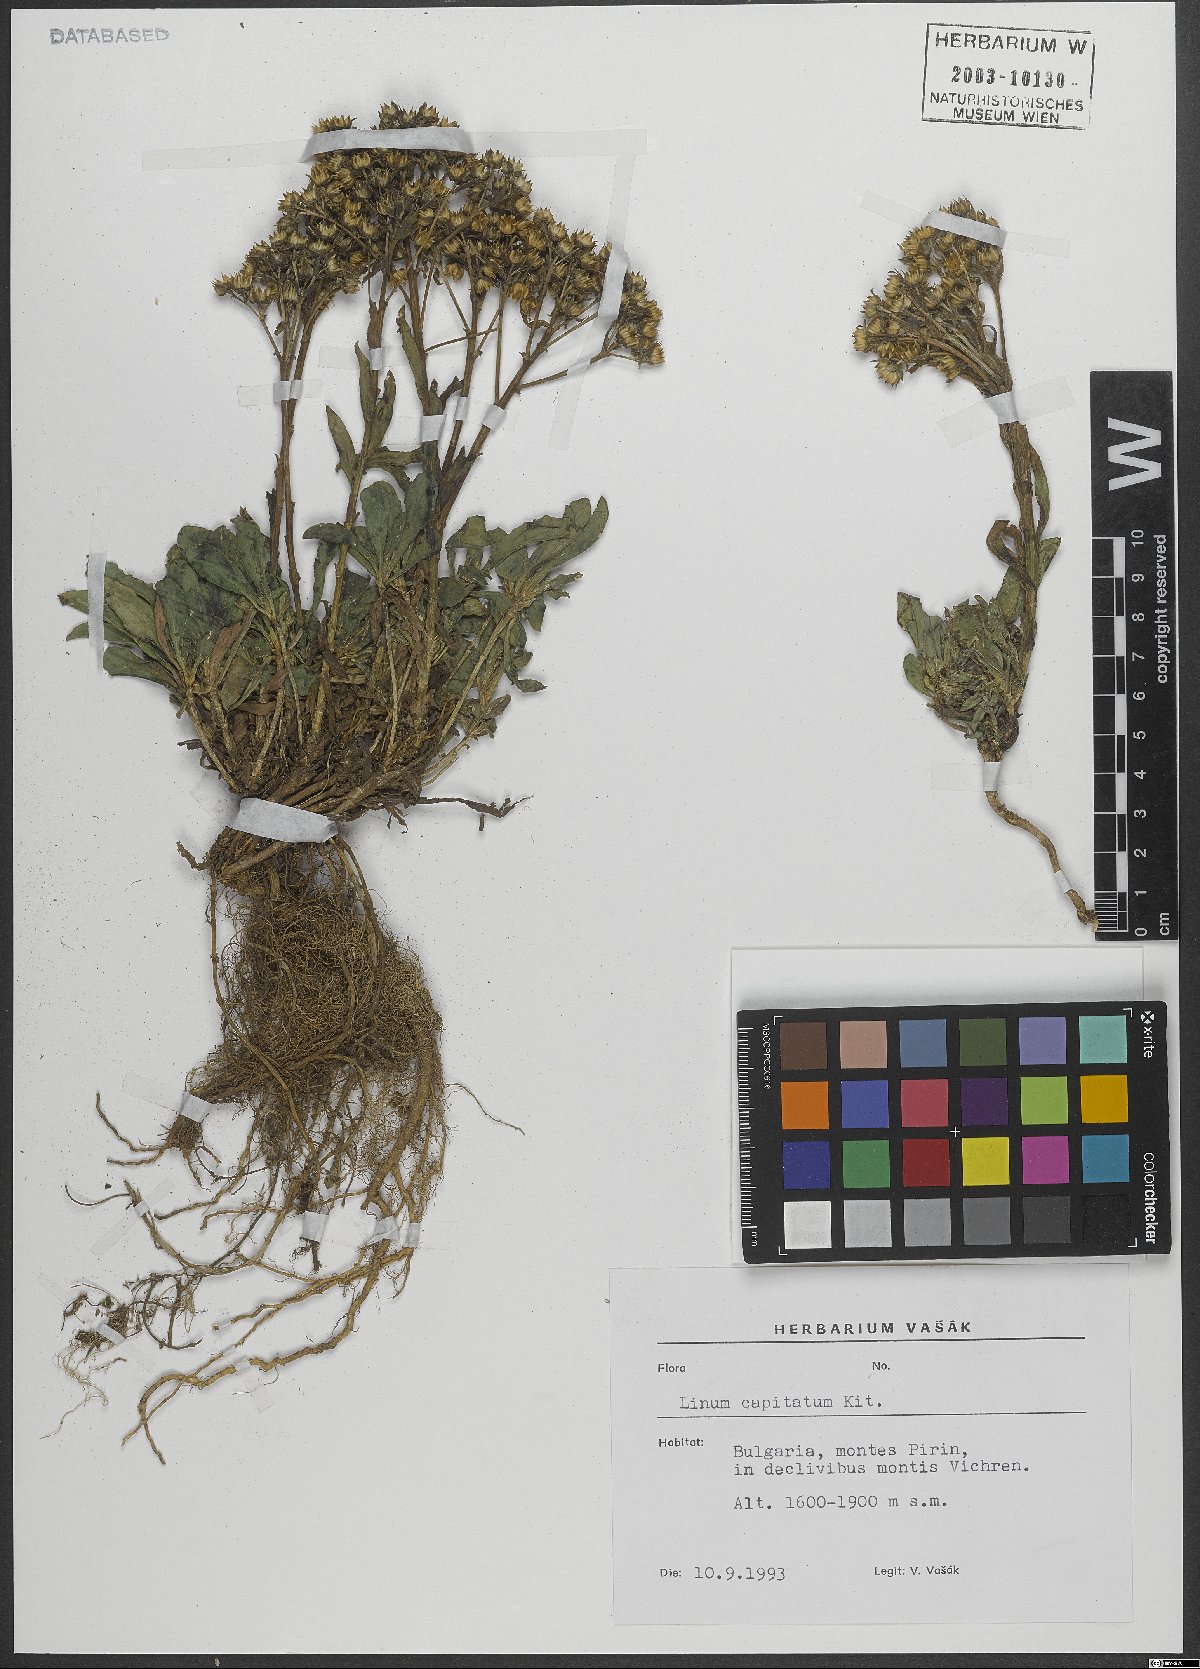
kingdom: Plantae
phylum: Tracheophyta
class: Magnoliopsida
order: Malpighiales
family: Linaceae
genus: Linum
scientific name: Linum capitatum
